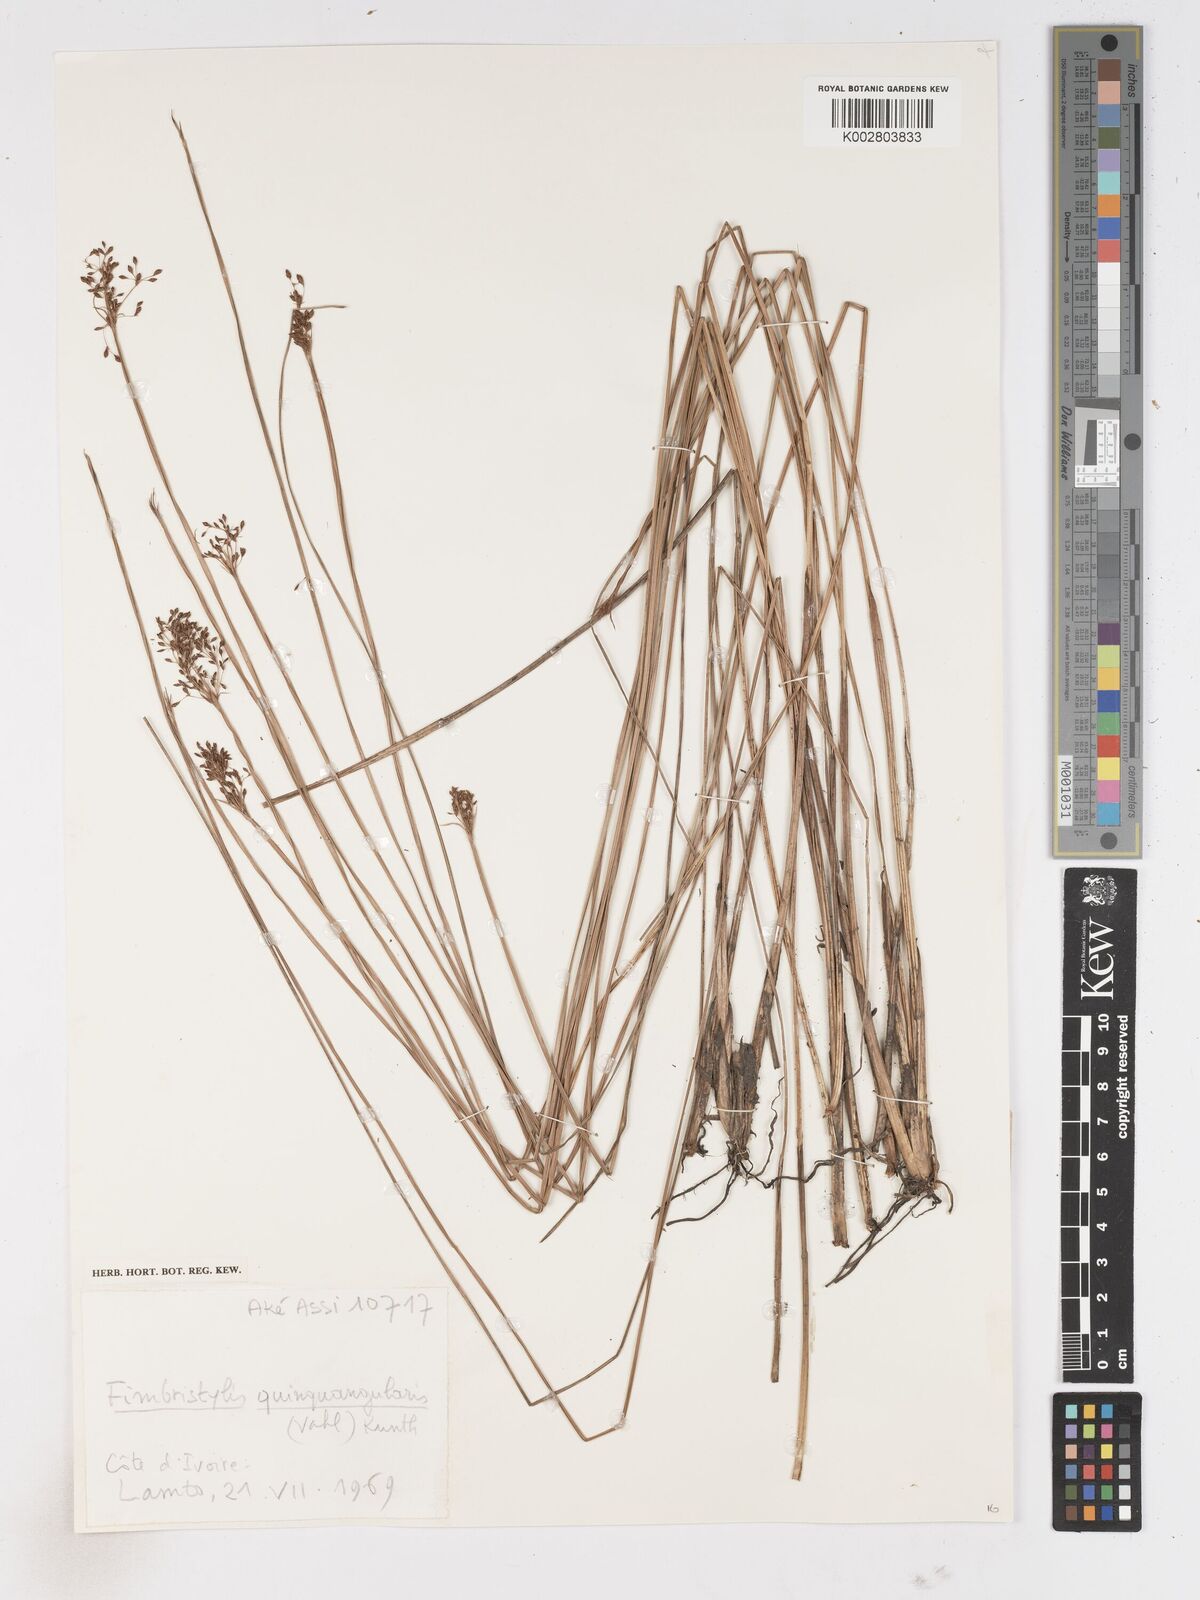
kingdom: Plantae
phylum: Tracheophyta
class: Liliopsida
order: Poales
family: Cyperaceae
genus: Fimbristylis
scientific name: Fimbristylis quinquangularis
